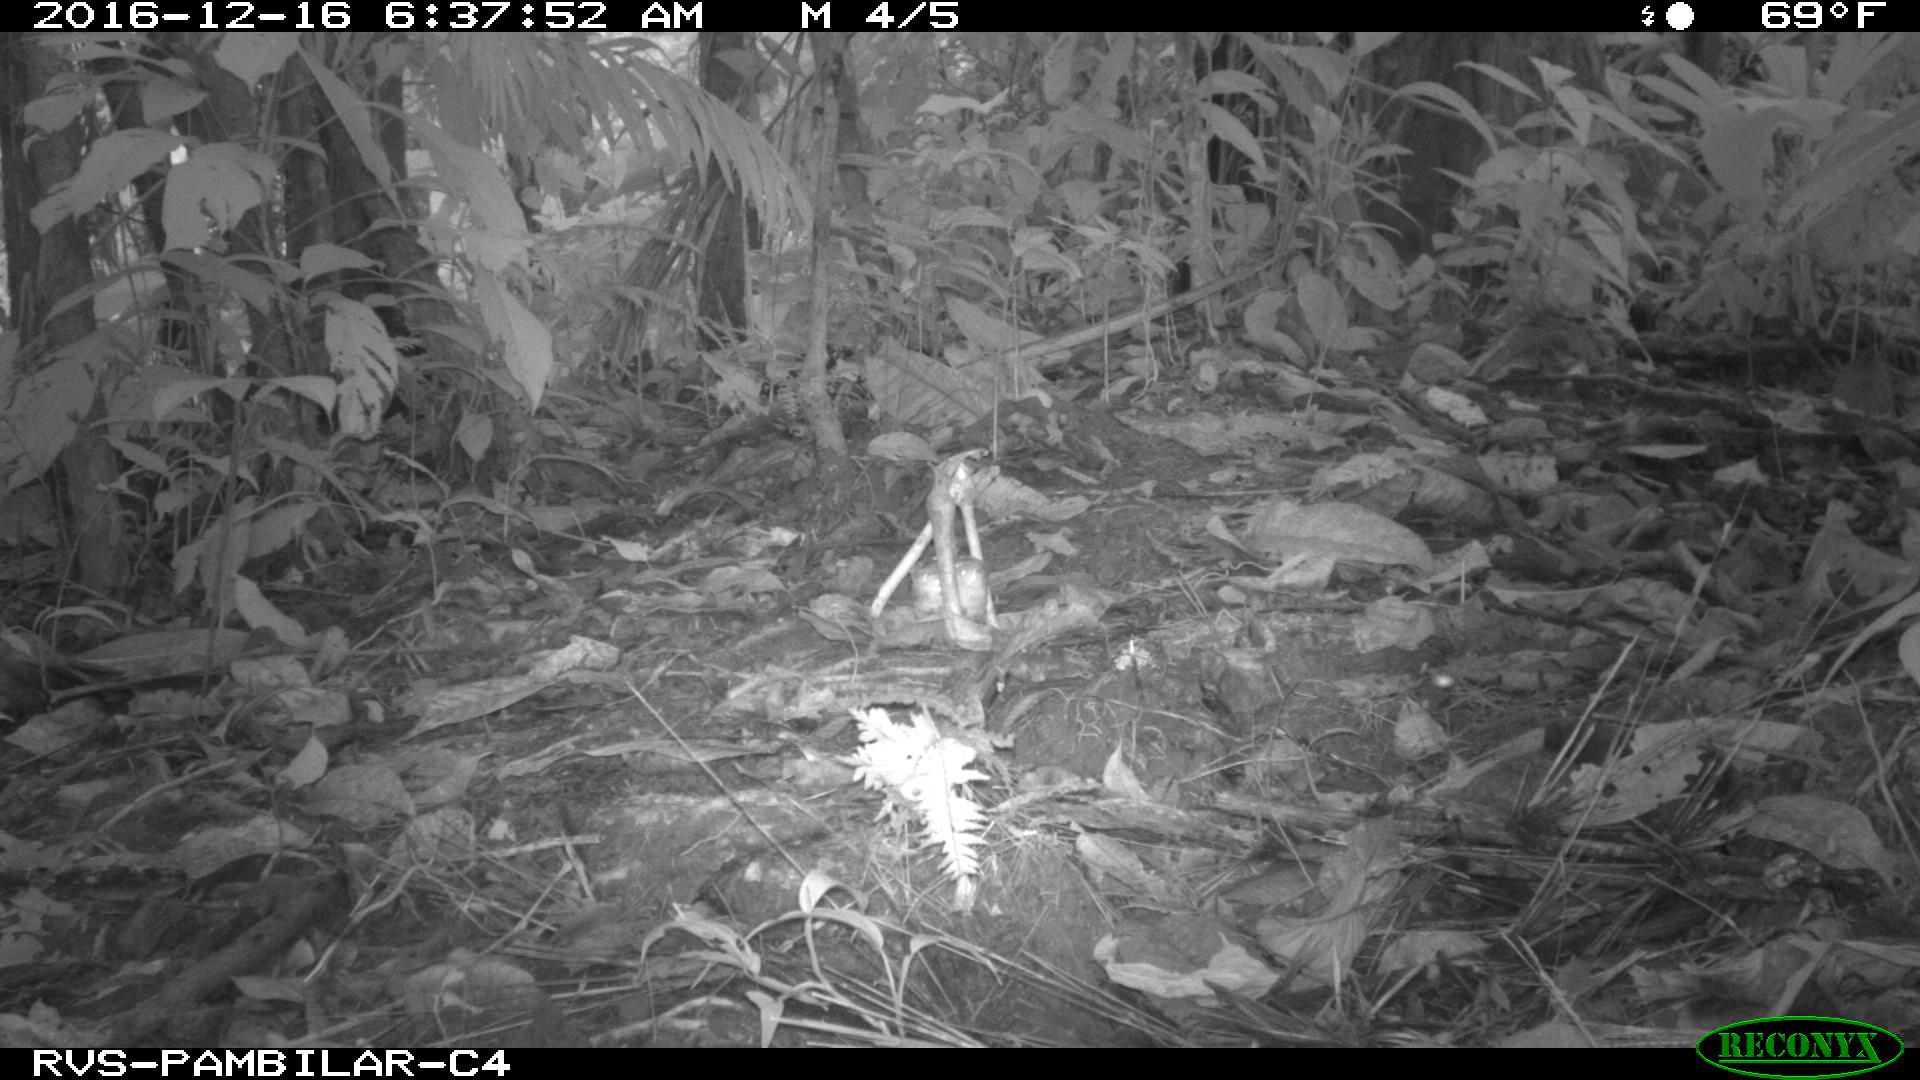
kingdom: Animalia
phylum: Chordata
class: Mammalia
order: Rodentia
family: Dasyproctidae
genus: Dasyprocta
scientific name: Dasyprocta punctata
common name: Central american agouti
